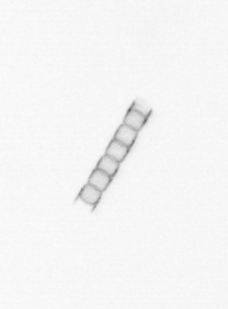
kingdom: Chromista
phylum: Ochrophyta
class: Bacillariophyceae
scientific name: Bacillariophyceae
